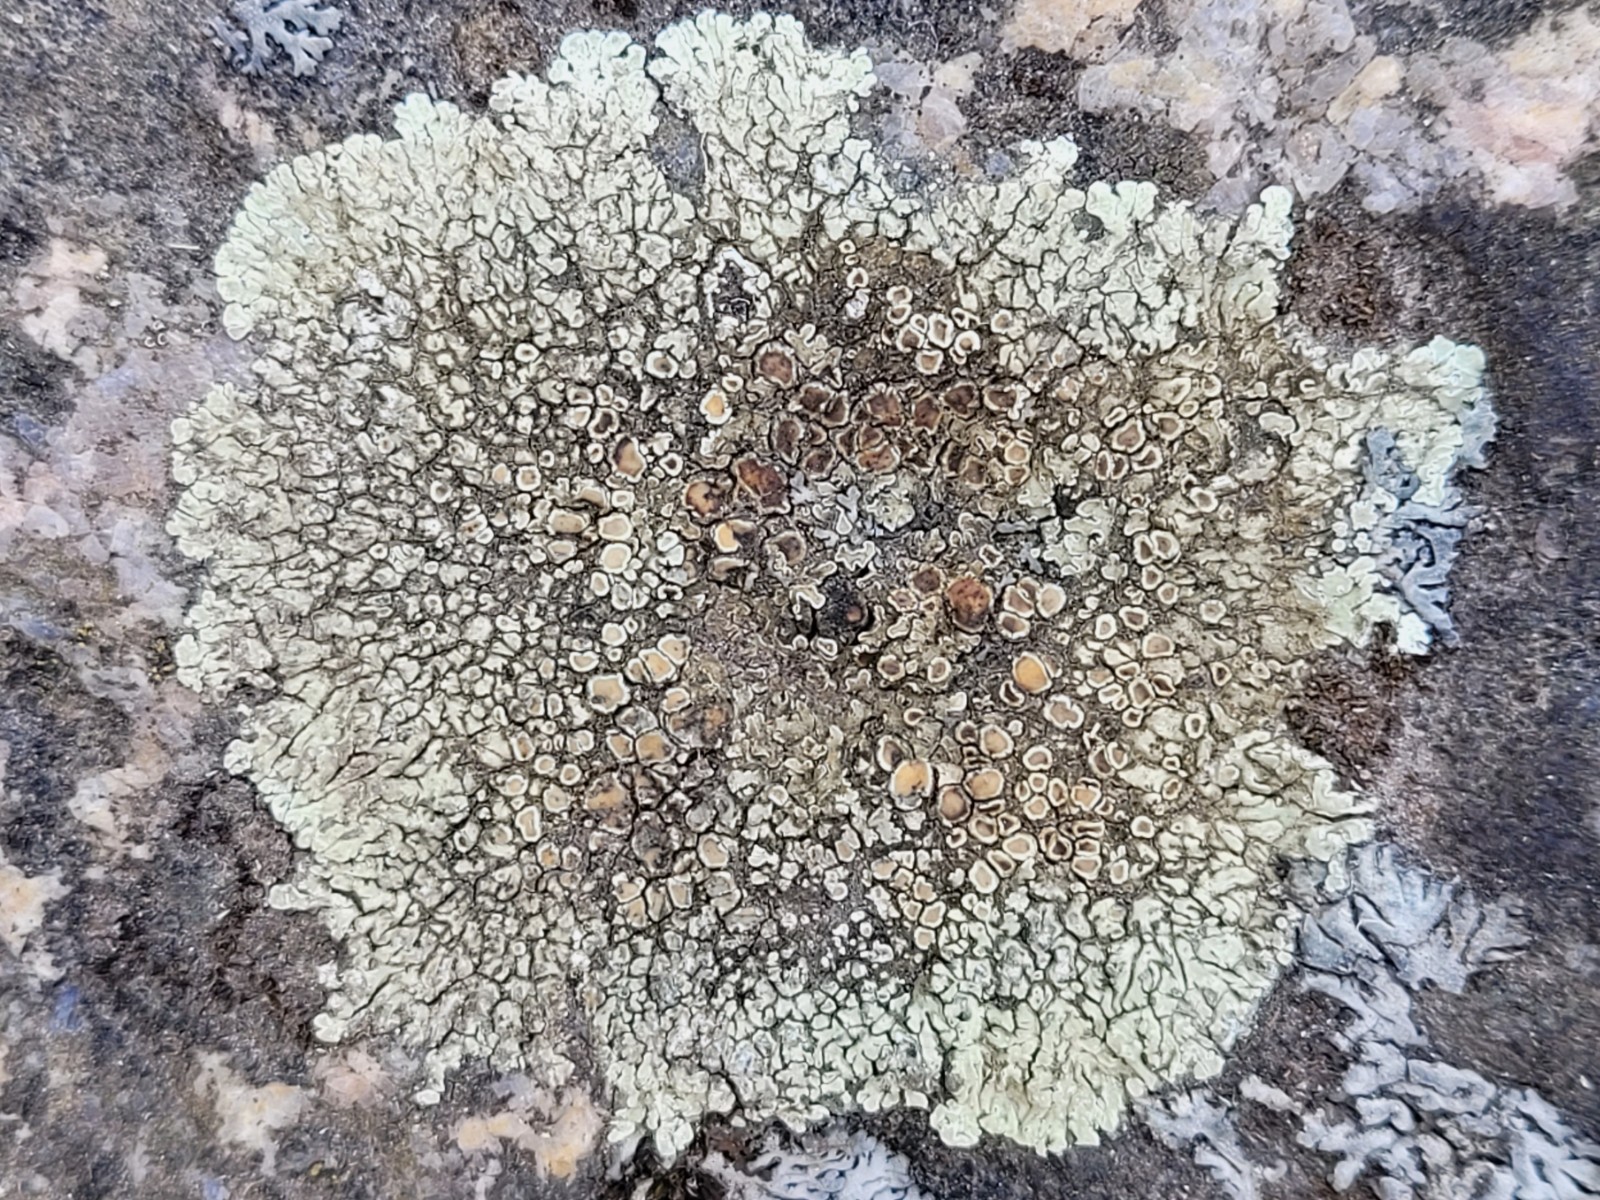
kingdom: Fungi
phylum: Ascomycota
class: Lecanoromycetes
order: Lecanorales
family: Lecanoraceae
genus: Protoparmeliopsis
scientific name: Protoparmeliopsis muralis
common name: randfliget kantskivelav
